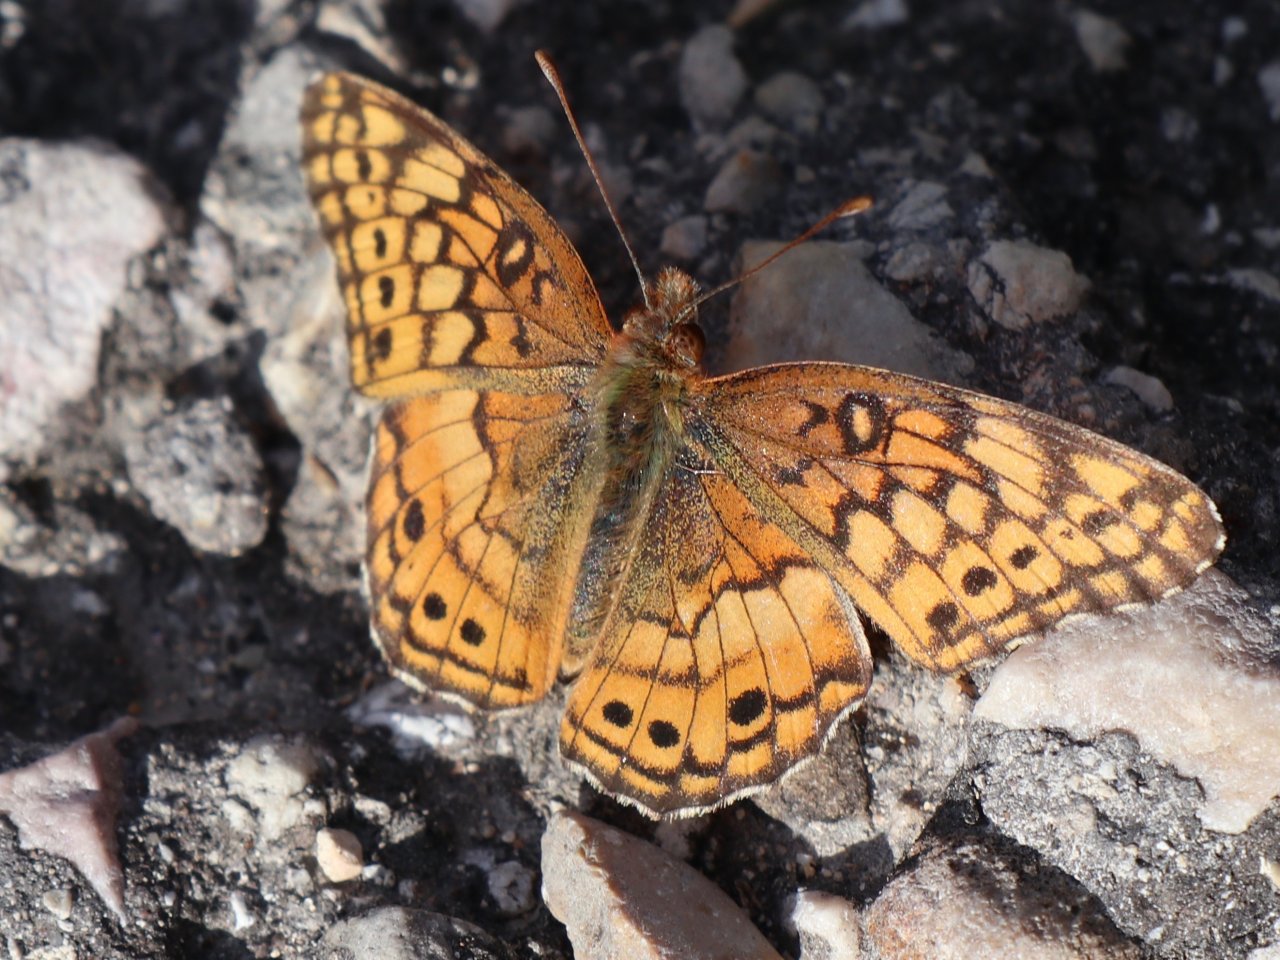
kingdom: Animalia
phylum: Arthropoda
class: Insecta
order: Lepidoptera
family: Nymphalidae
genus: Euptoieta
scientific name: Euptoieta claudia
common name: Variegated Fritillary
